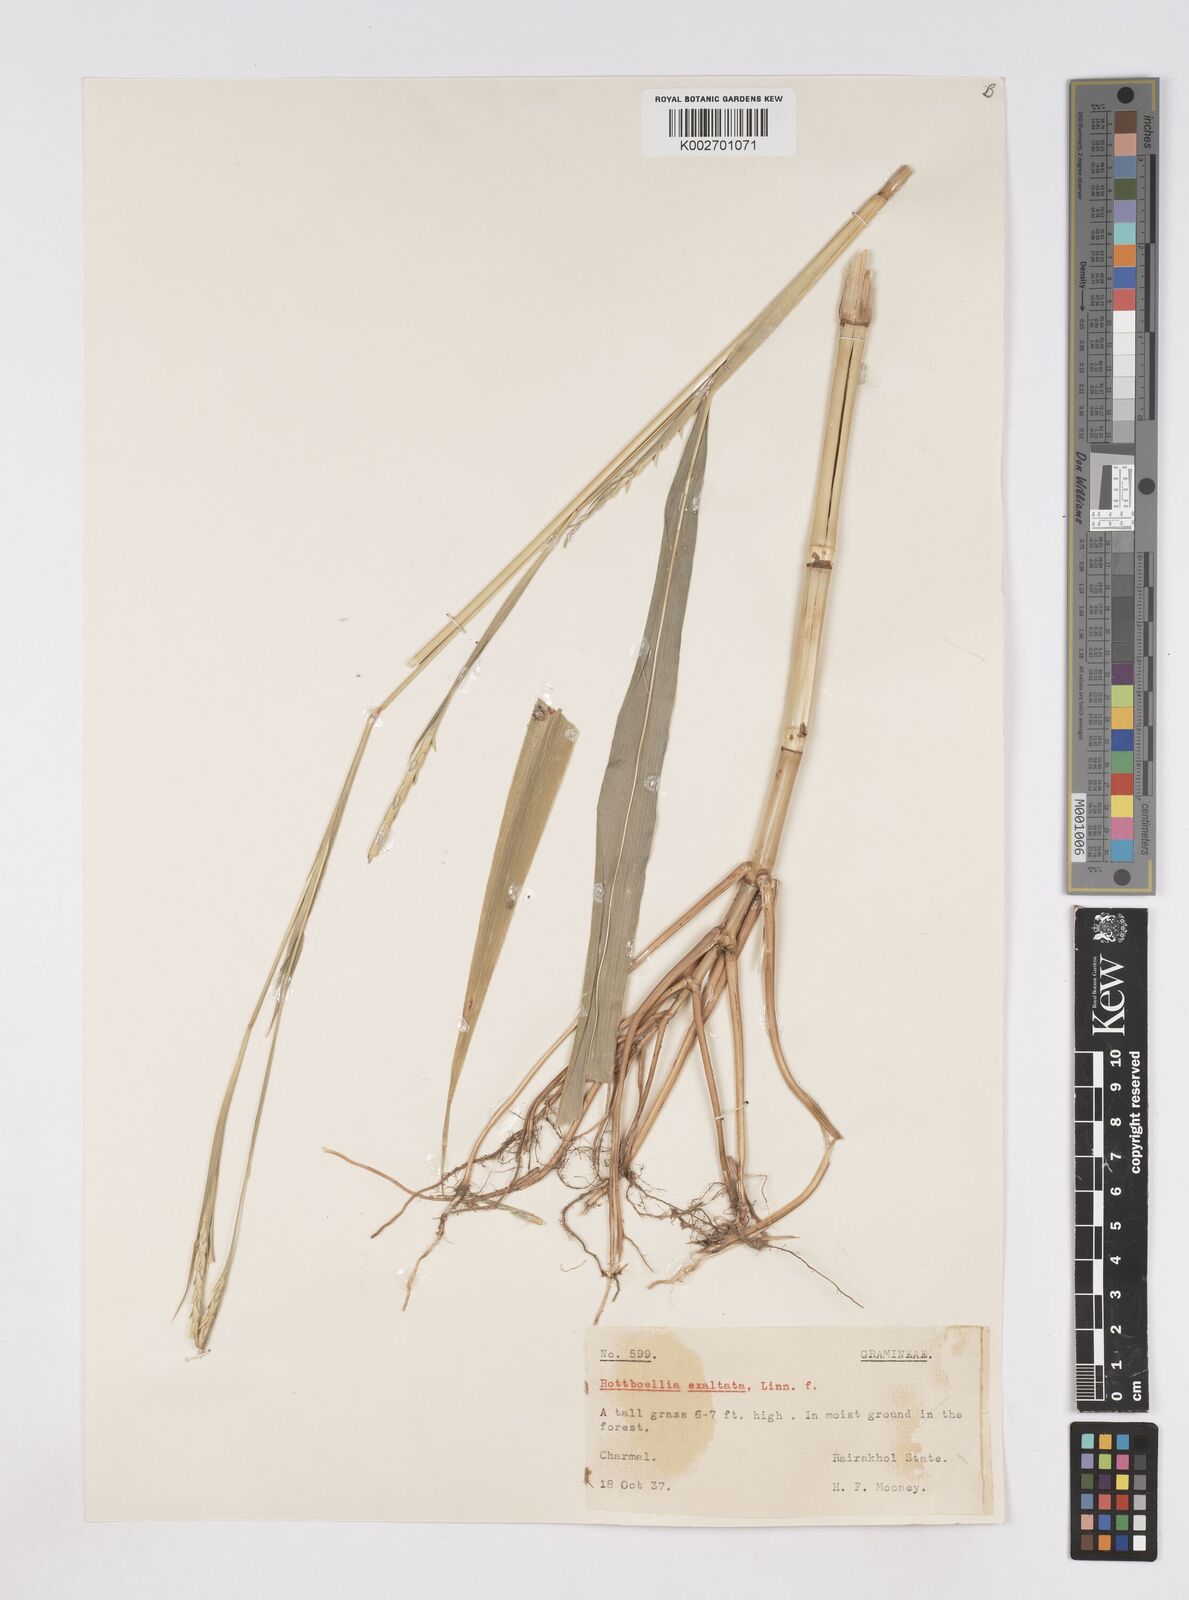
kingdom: Plantae
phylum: Tracheophyta
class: Liliopsida
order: Poales
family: Poaceae
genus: Ophiuros
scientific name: Ophiuros exaltatus
